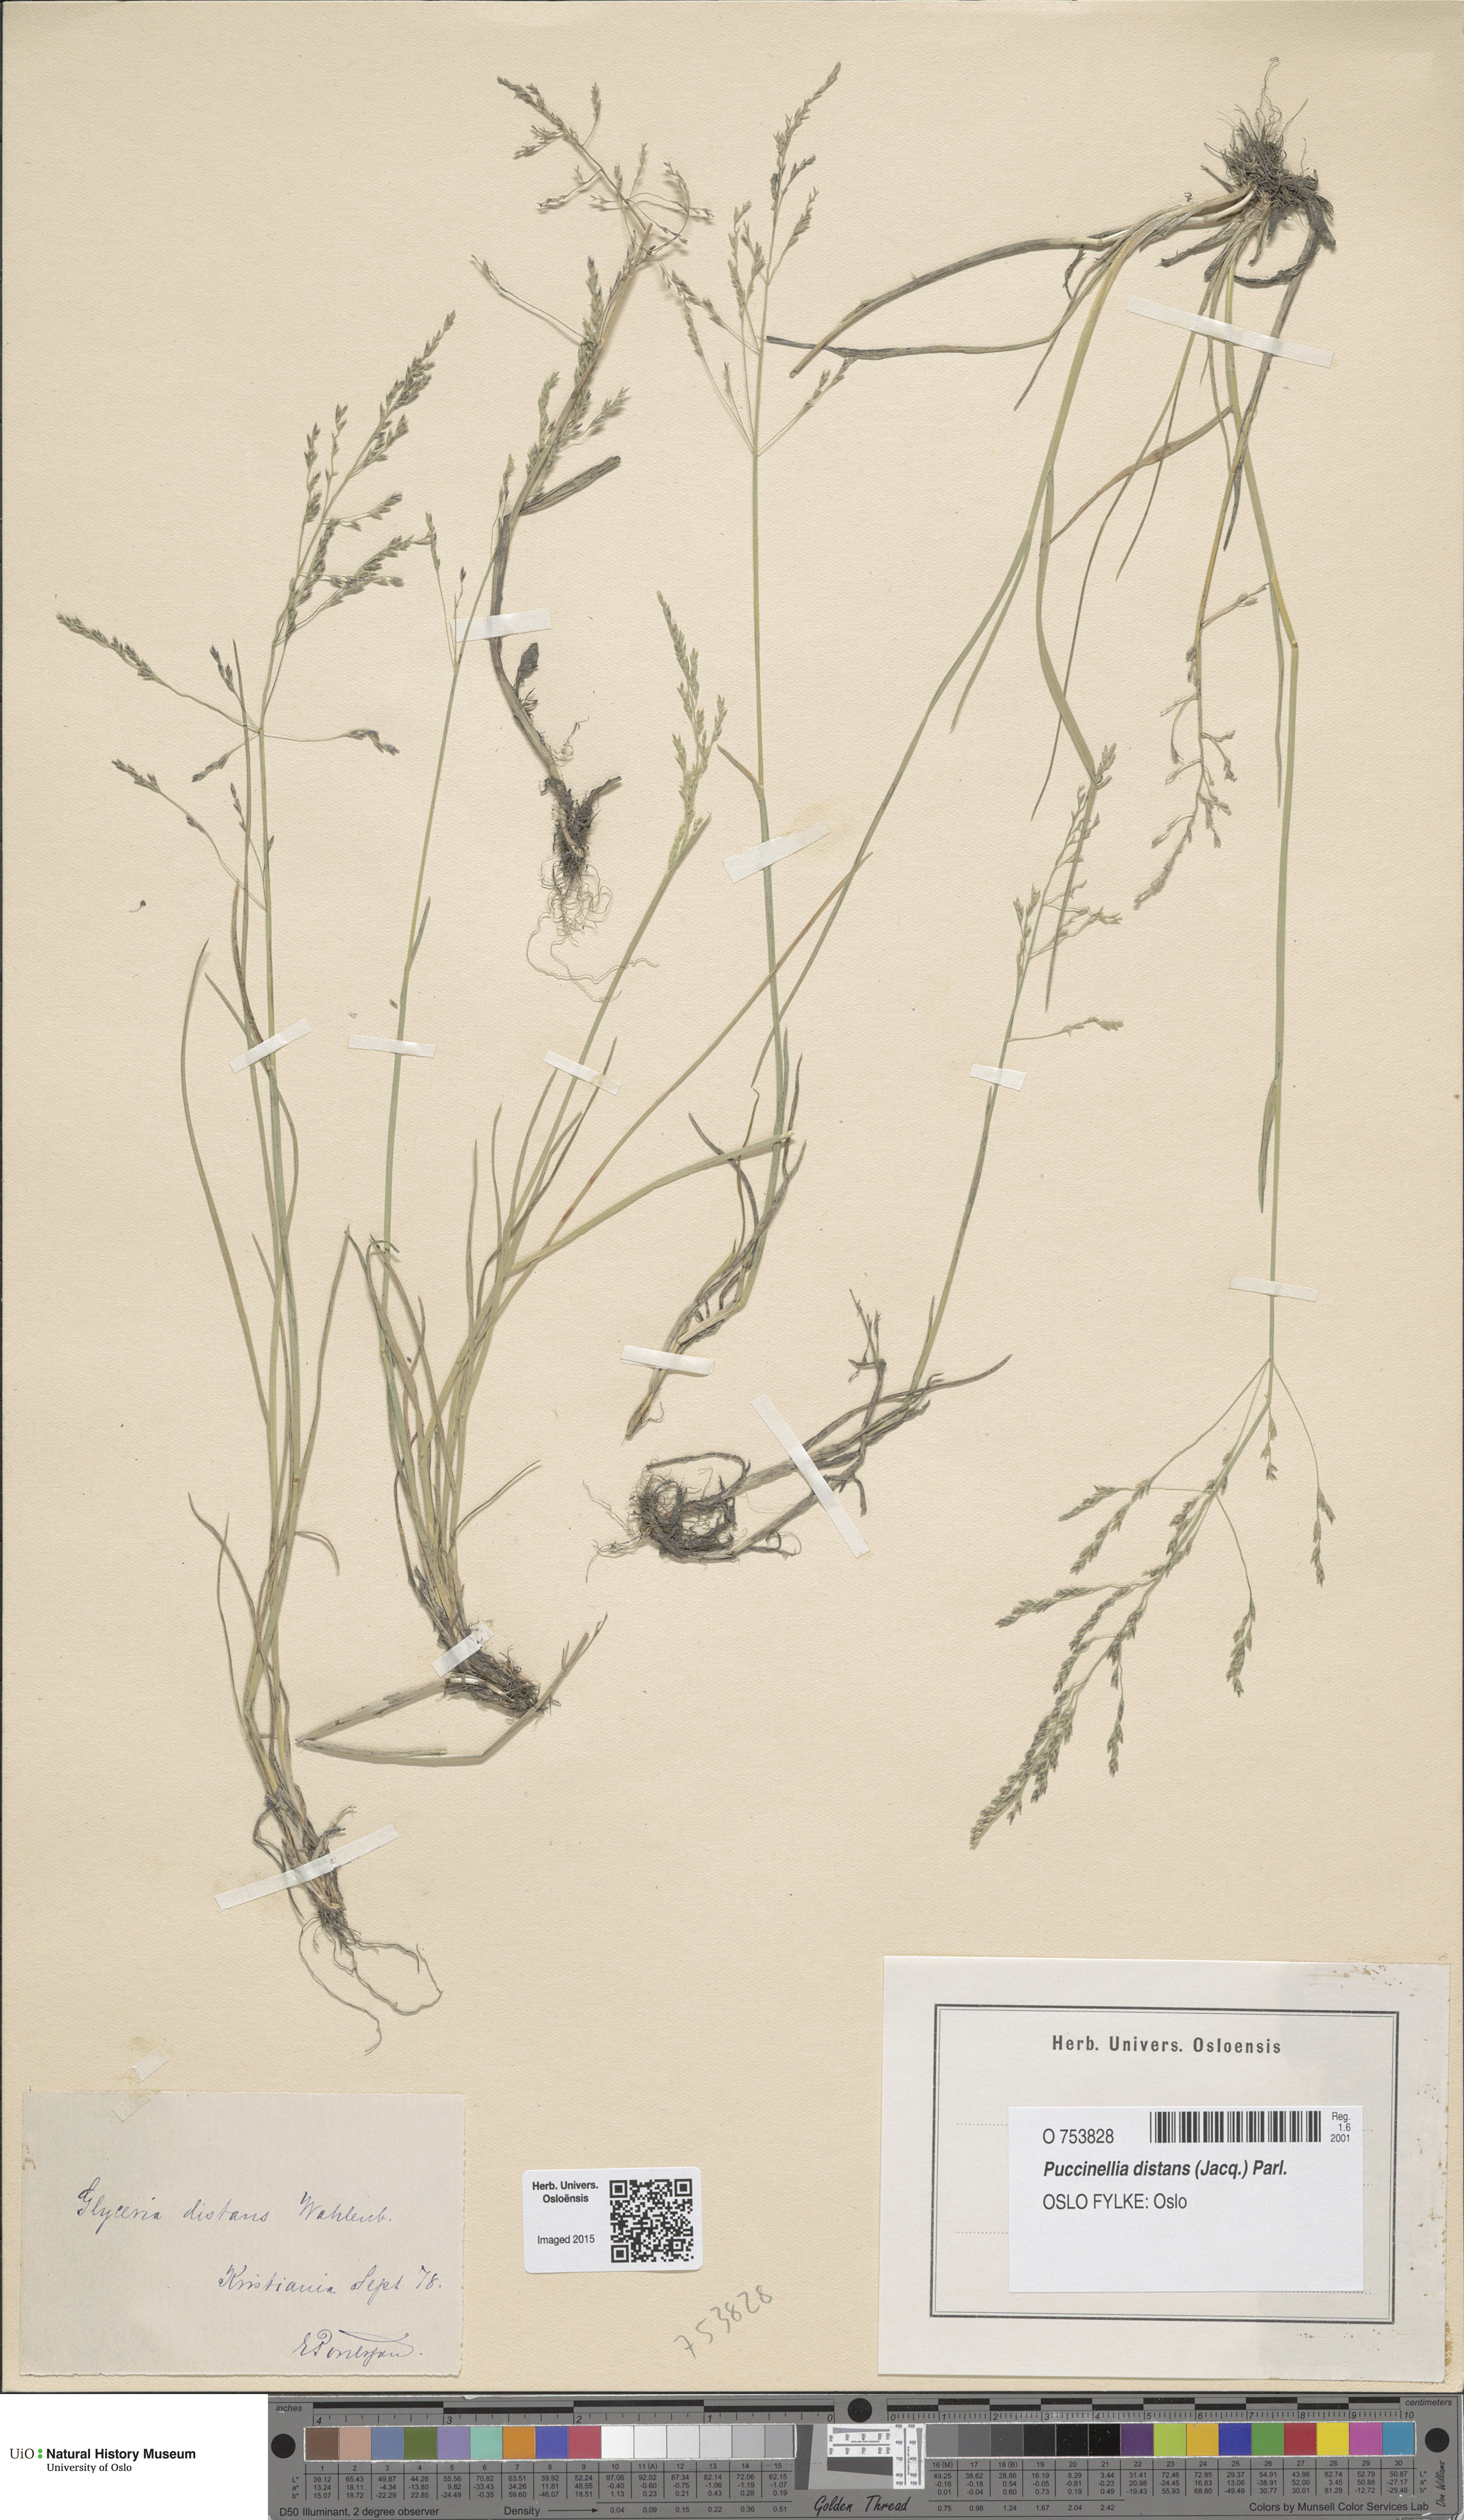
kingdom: Plantae
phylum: Tracheophyta
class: Liliopsida
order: Poales
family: Poaceae
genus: Puccinellia
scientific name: Puccinellia distans
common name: Weeping alkaligrass
